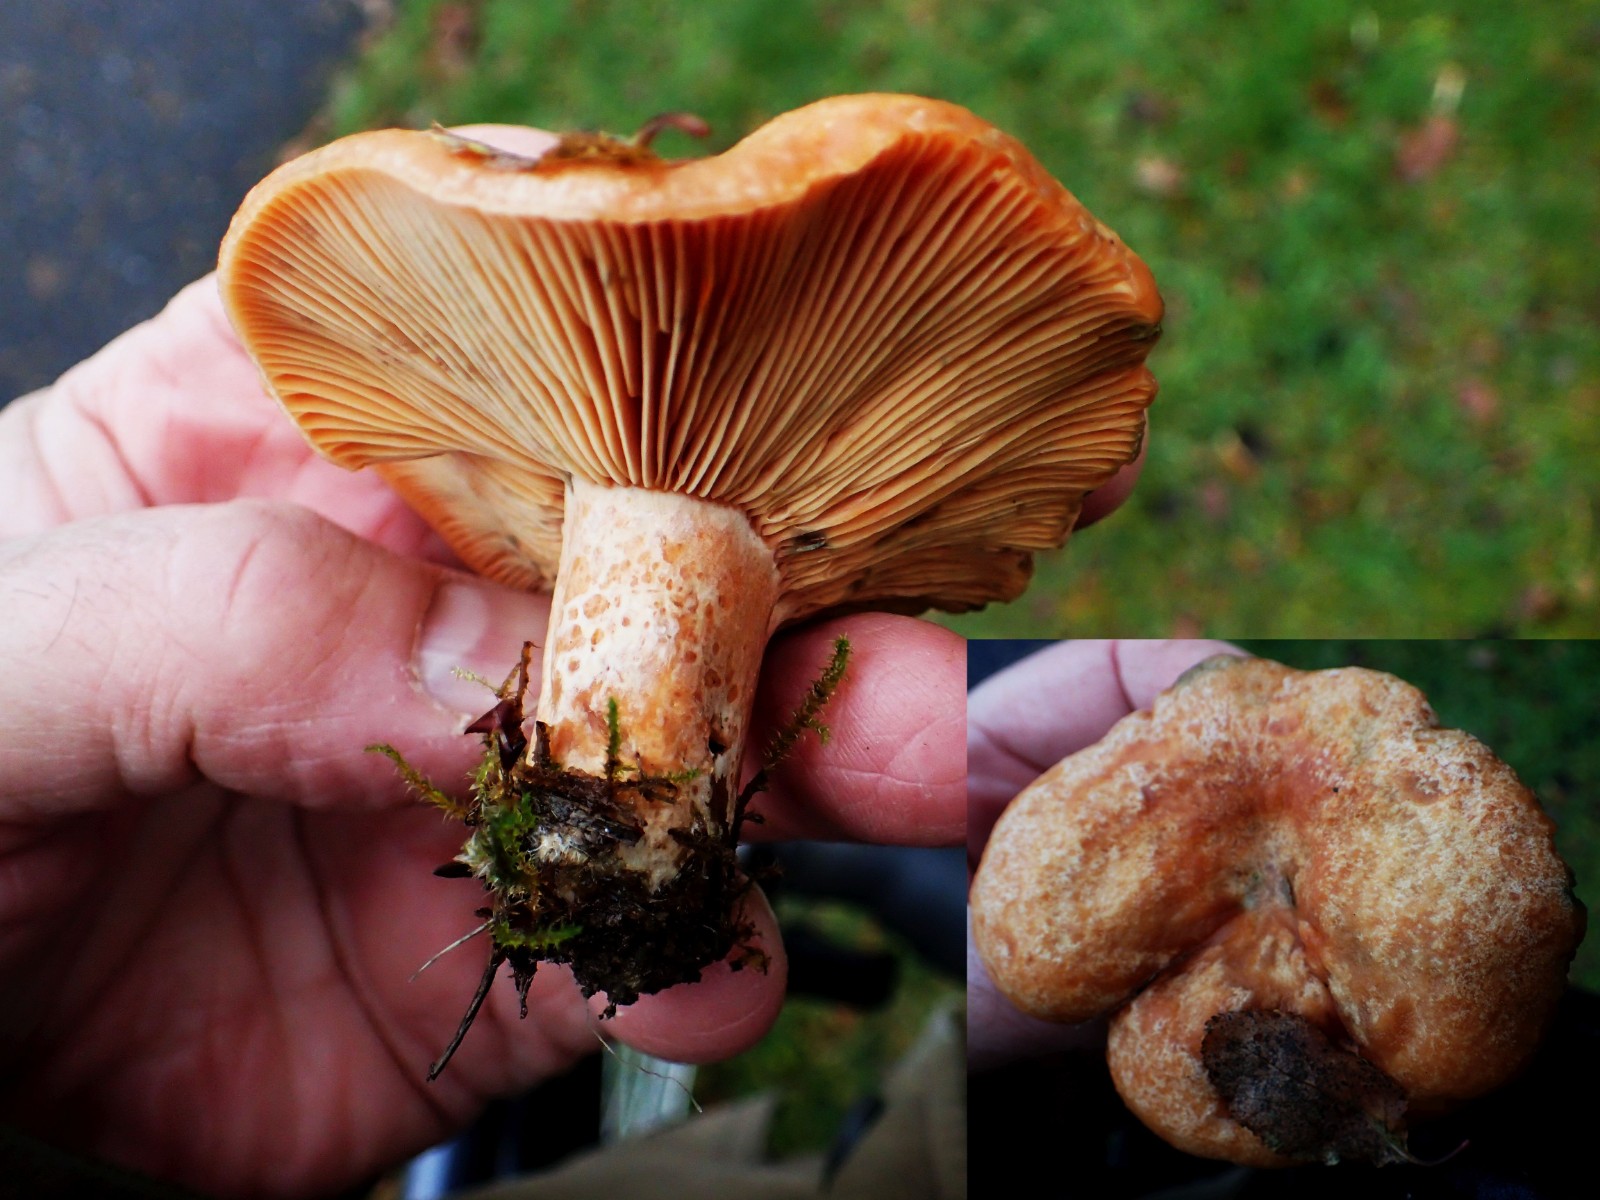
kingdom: Fungi
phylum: Basidiomycota
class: Agaricomycetes
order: Russulales
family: Russulaceae
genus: Lactarius
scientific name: Lactarius deliciosus
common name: velsmagende mælkehat
